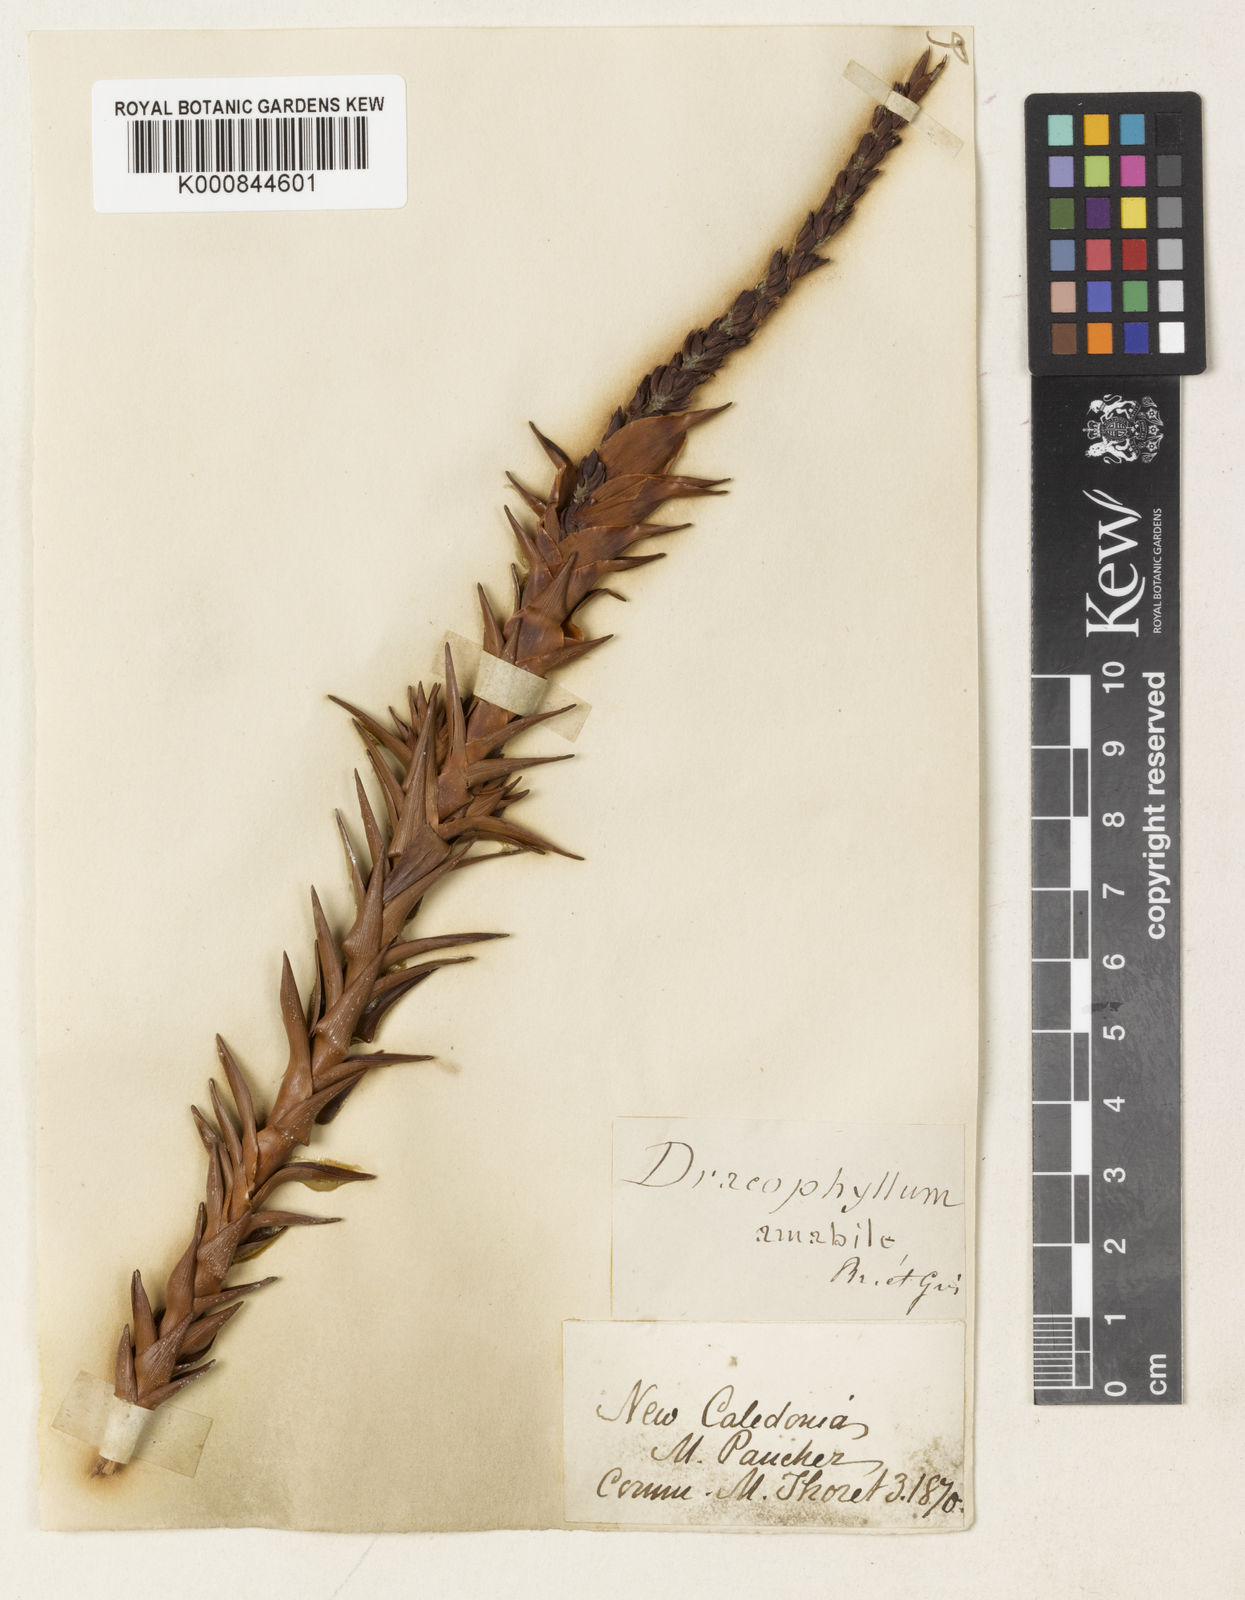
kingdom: Plantae
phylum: Tracheophyta
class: Magnoliopsida
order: Ericales
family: Ericaceae
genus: Dracophyllum
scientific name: Dracophyllum ramosum
